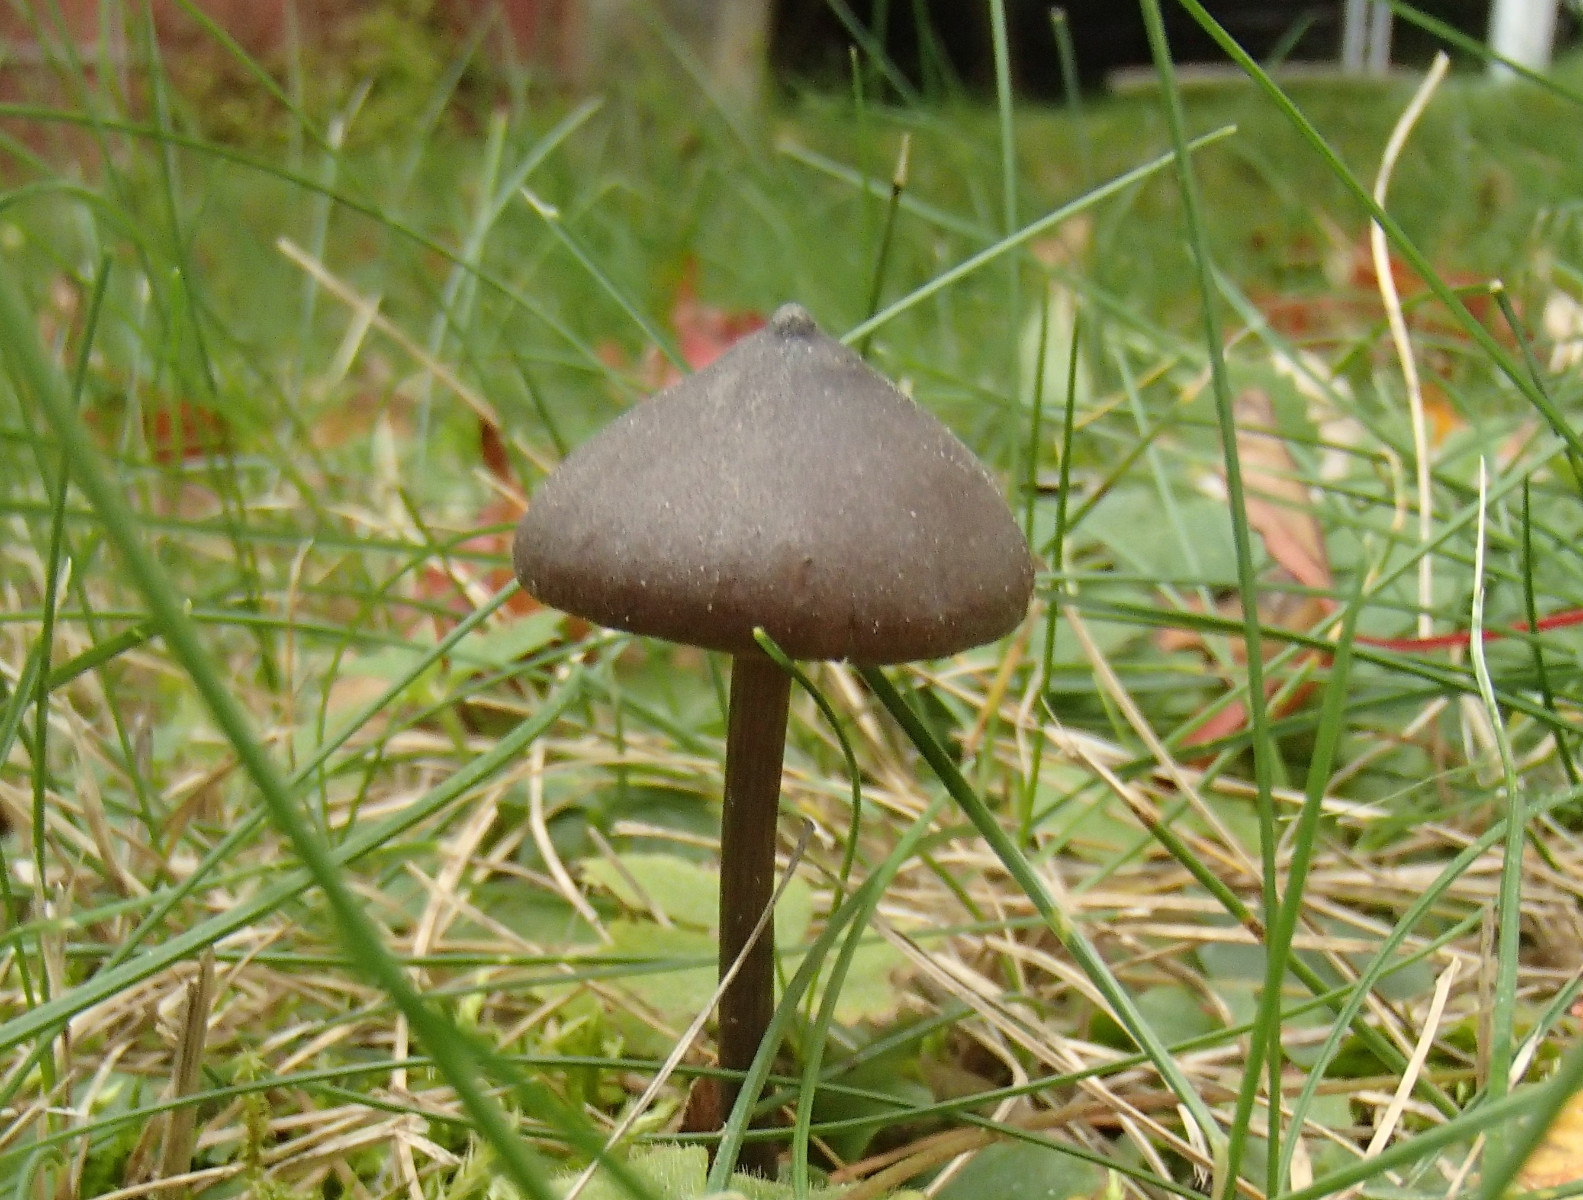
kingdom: Fungi
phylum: Basidiomycota
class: Agaricomycetes
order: Agaricales
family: Entolomataceae
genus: Entoloma
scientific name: Entoloma
